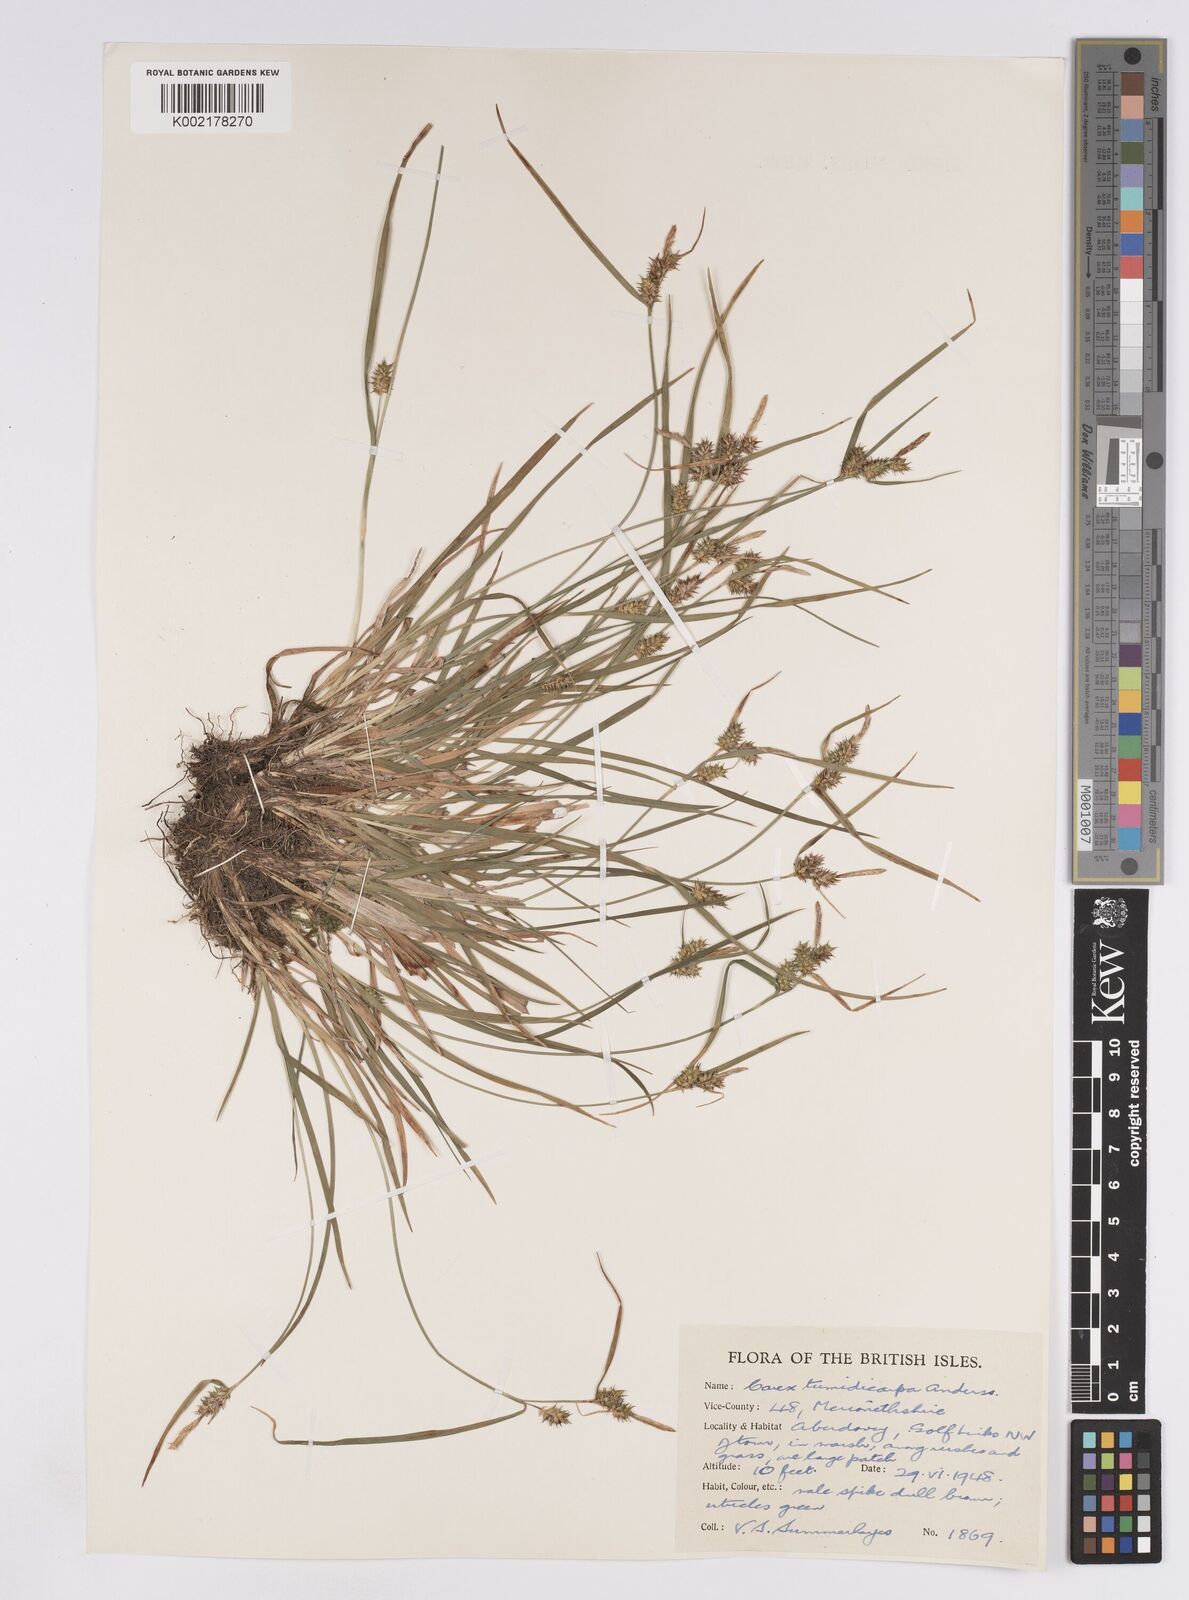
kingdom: Plantae
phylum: Tracheophyta
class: Liliopsida
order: Poales
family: Cyperaceae
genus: Carex
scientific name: Carex demissa
